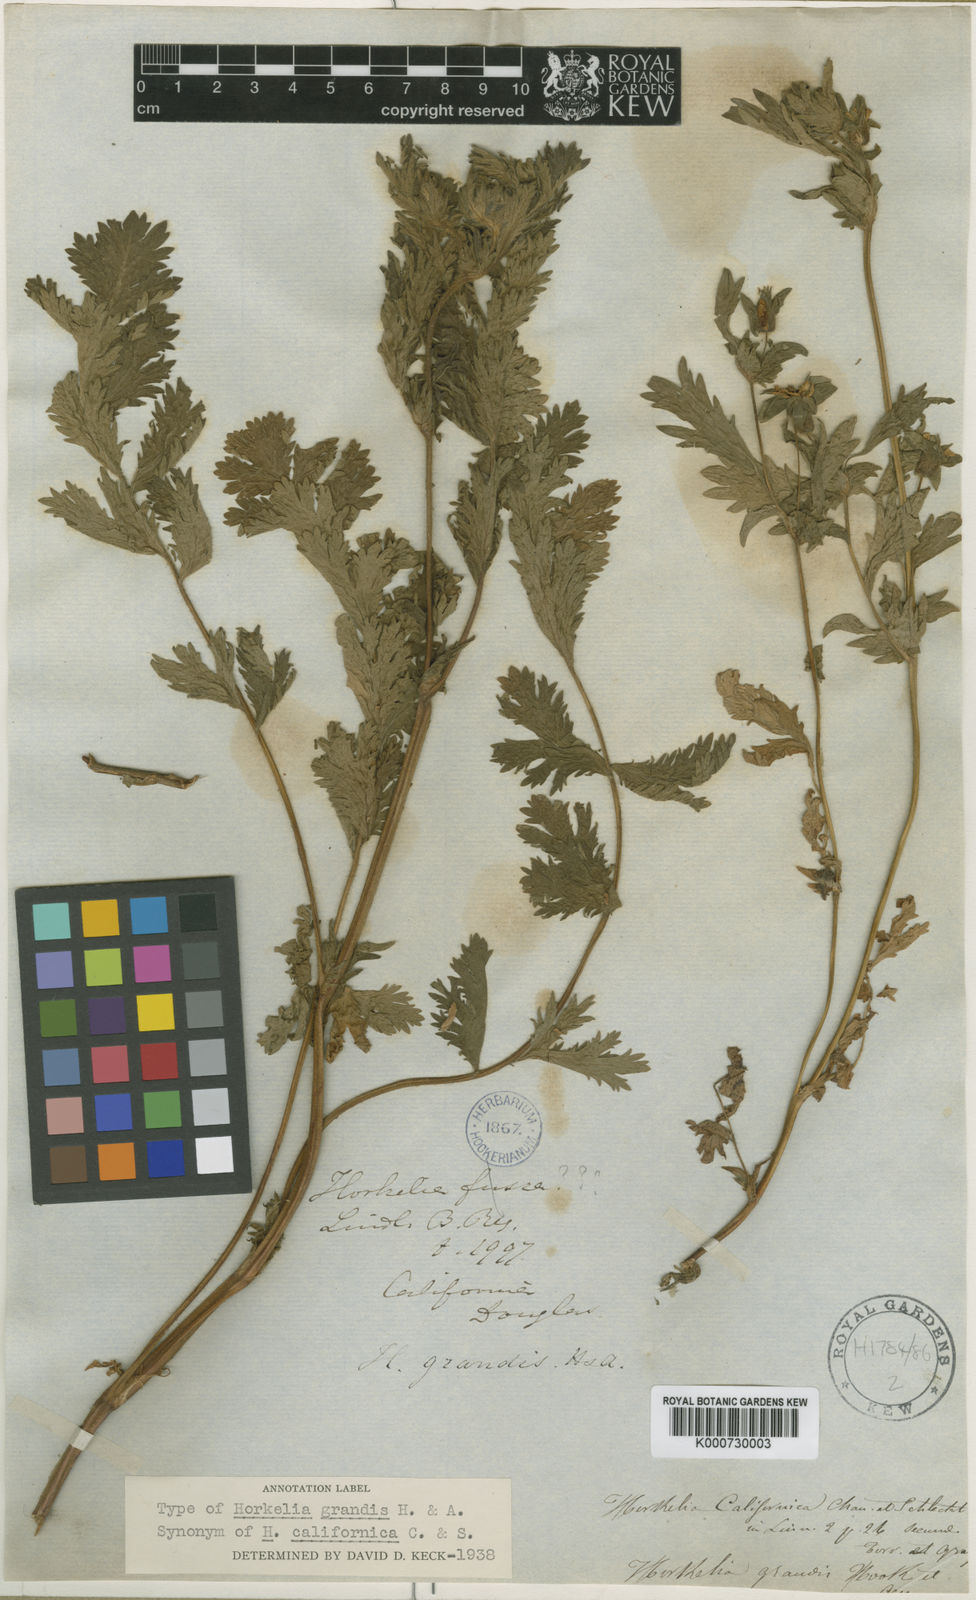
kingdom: Plantae
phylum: Tracheophyta
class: Magnoliopsida
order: Rosales
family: Rosaceae
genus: Potentilla
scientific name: Potentilla californica
